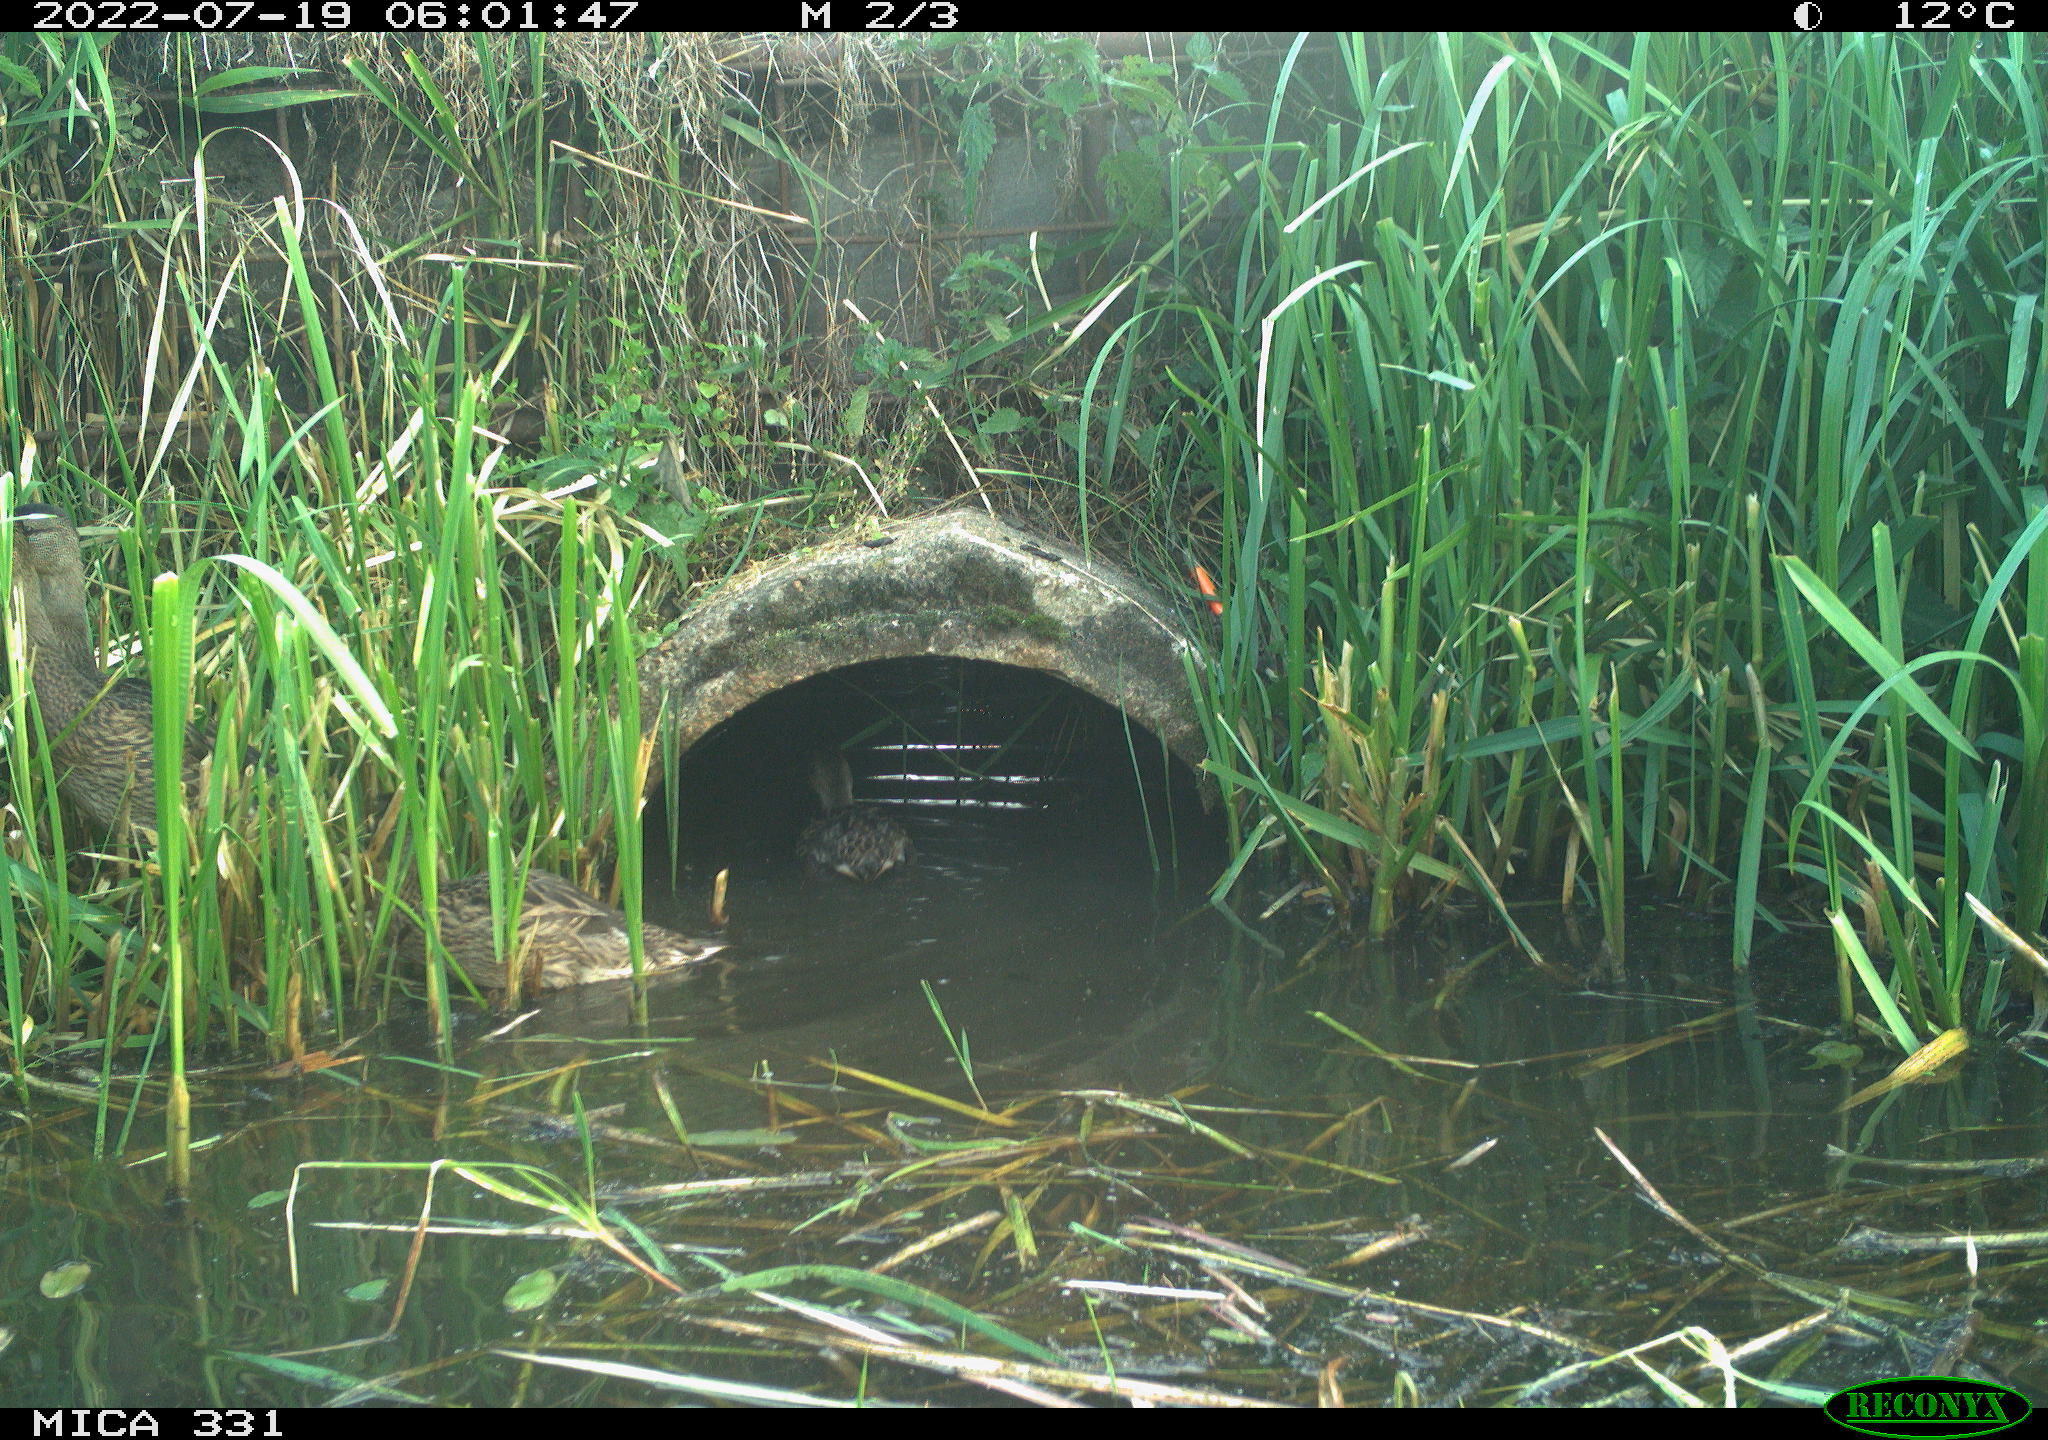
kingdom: Animalia
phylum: Chordata
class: Aves
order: Anseriformes
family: Anatidae
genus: Anas
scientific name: Anas platyrhynchos
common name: Mallard
